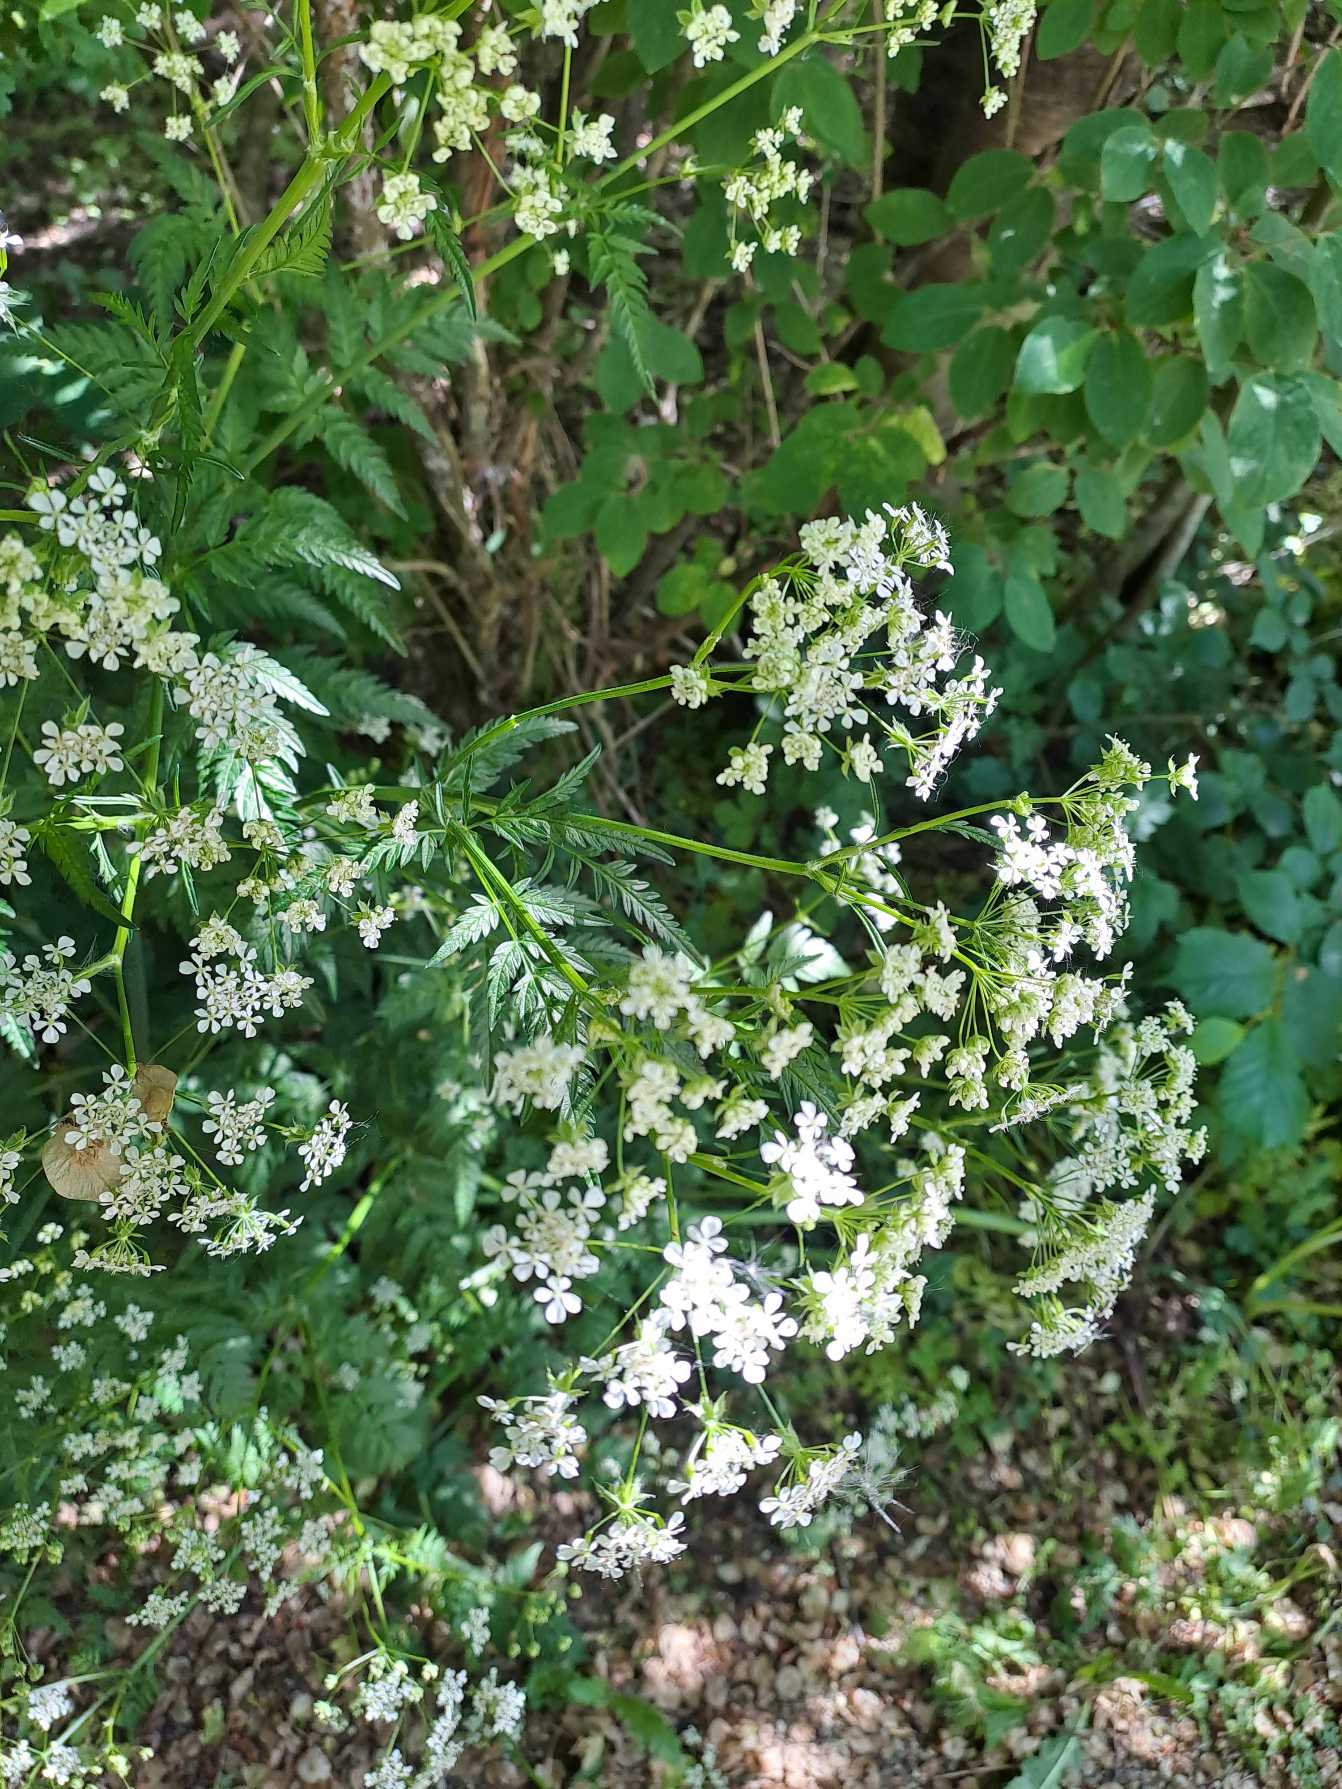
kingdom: Plantae
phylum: Tracheophyta
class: Magnoliopsida
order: Apiales
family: Apiaceae
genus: Anthriscus
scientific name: Anthriscus sylvestris
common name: Vild kørvel
